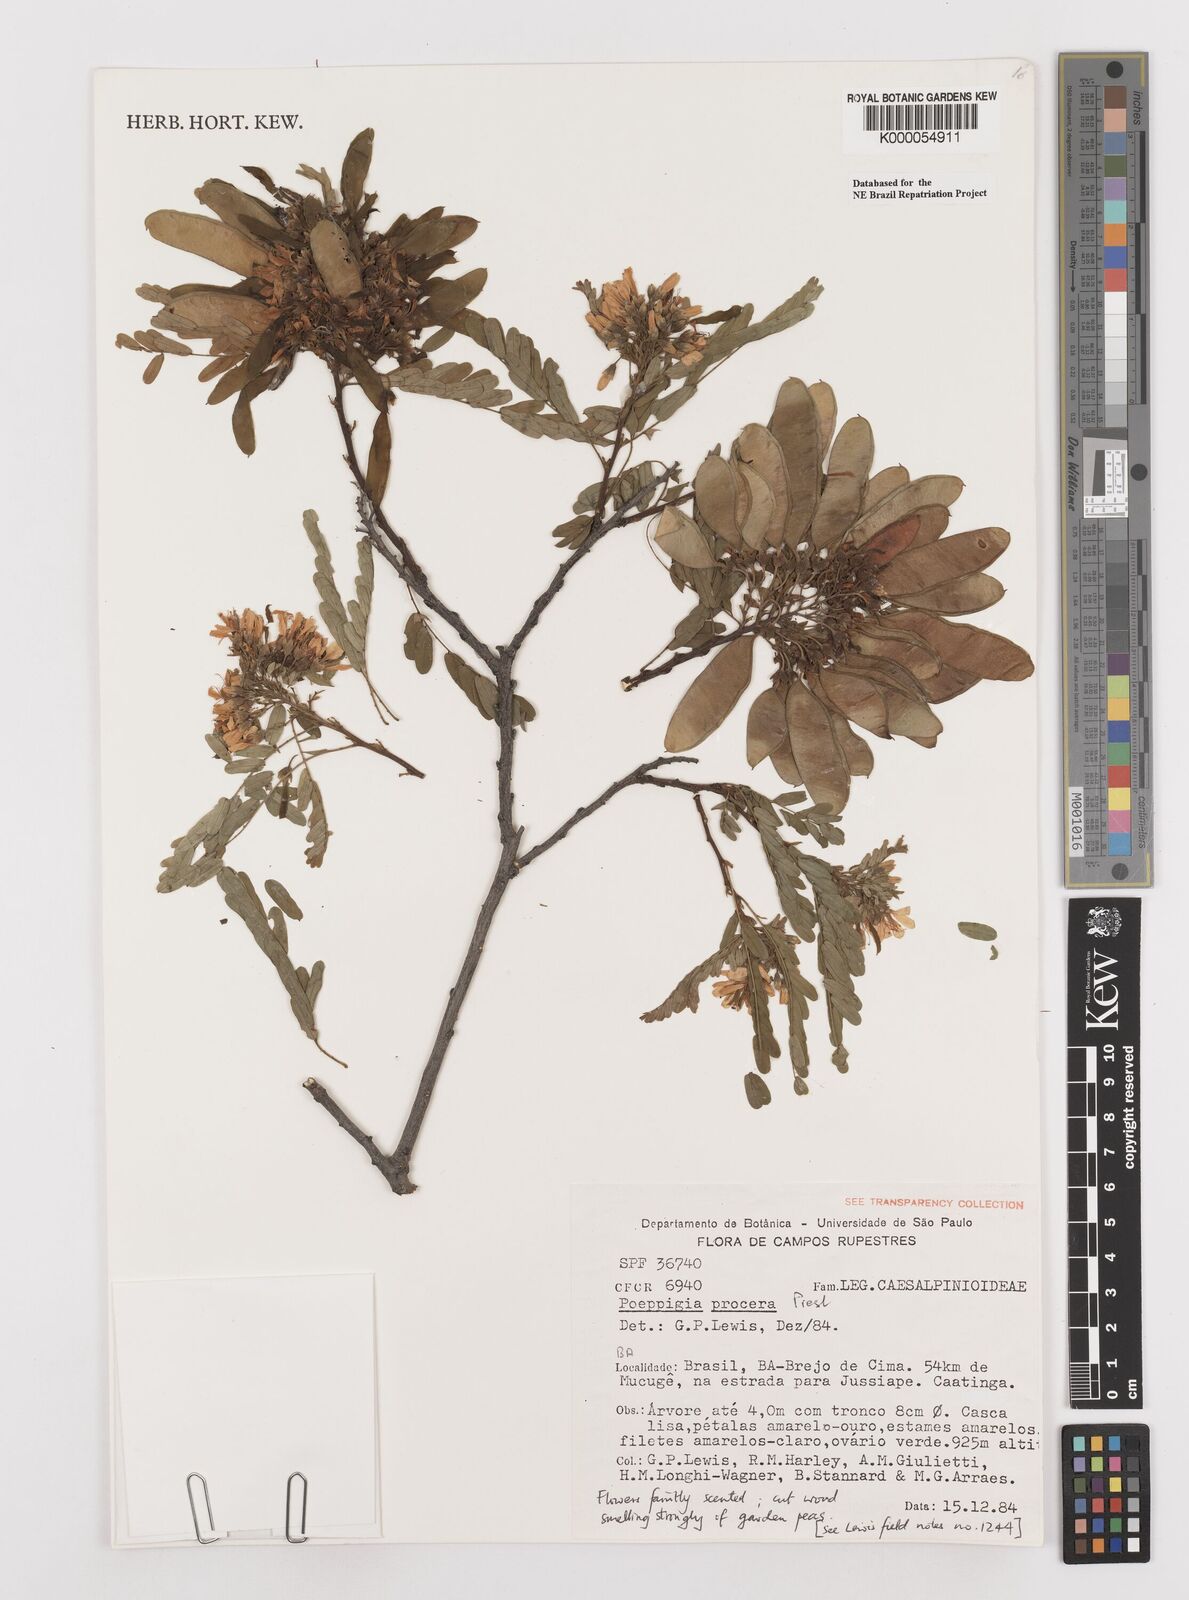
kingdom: Plantae
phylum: Tracheophyta
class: Magnoliopsida
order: Fabales
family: Fabaceae
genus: Poeppigia
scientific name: Poeppigia procera
